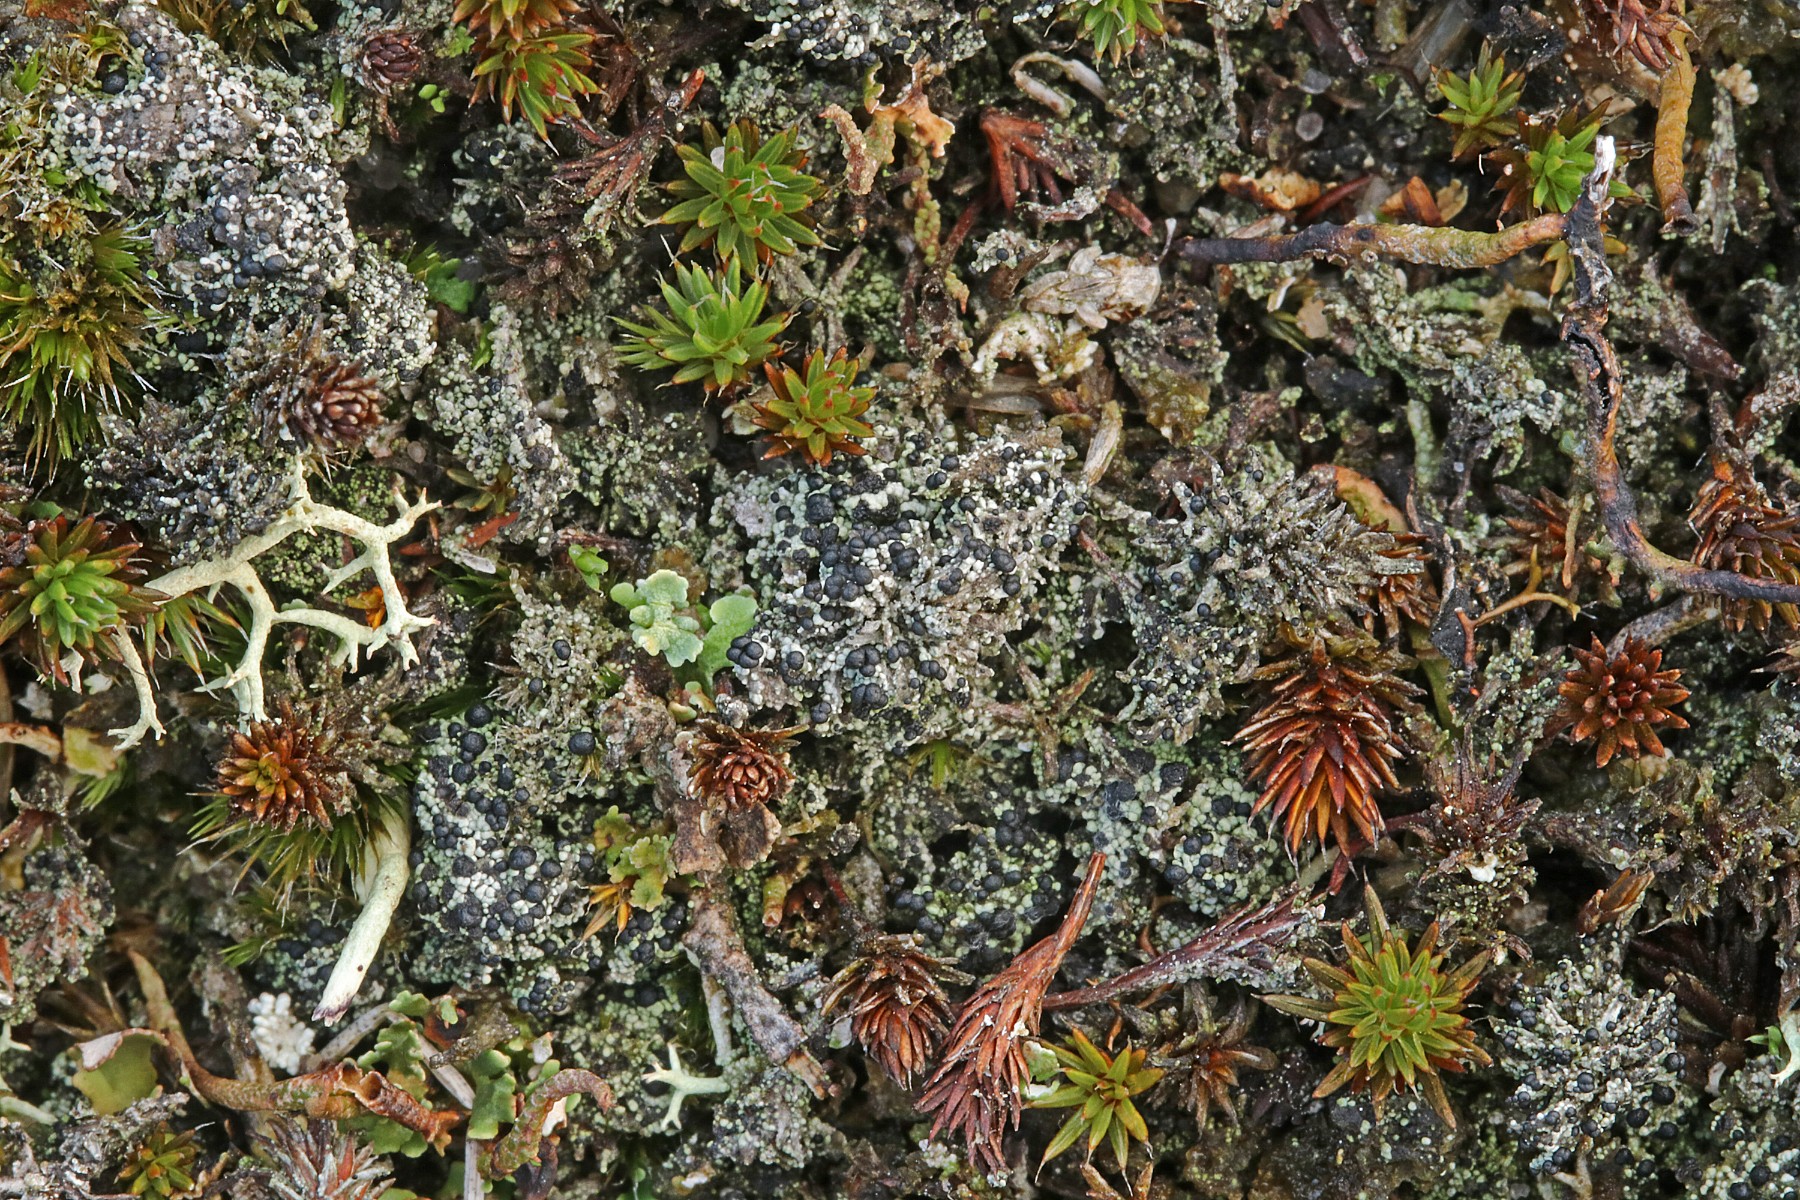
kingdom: Fungi
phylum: Ascomycota
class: Lecanoromycetes
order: Lecanorales
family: Byssolomataceae
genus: Micarea
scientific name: Micarea lignaria
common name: tørve-knaplav
